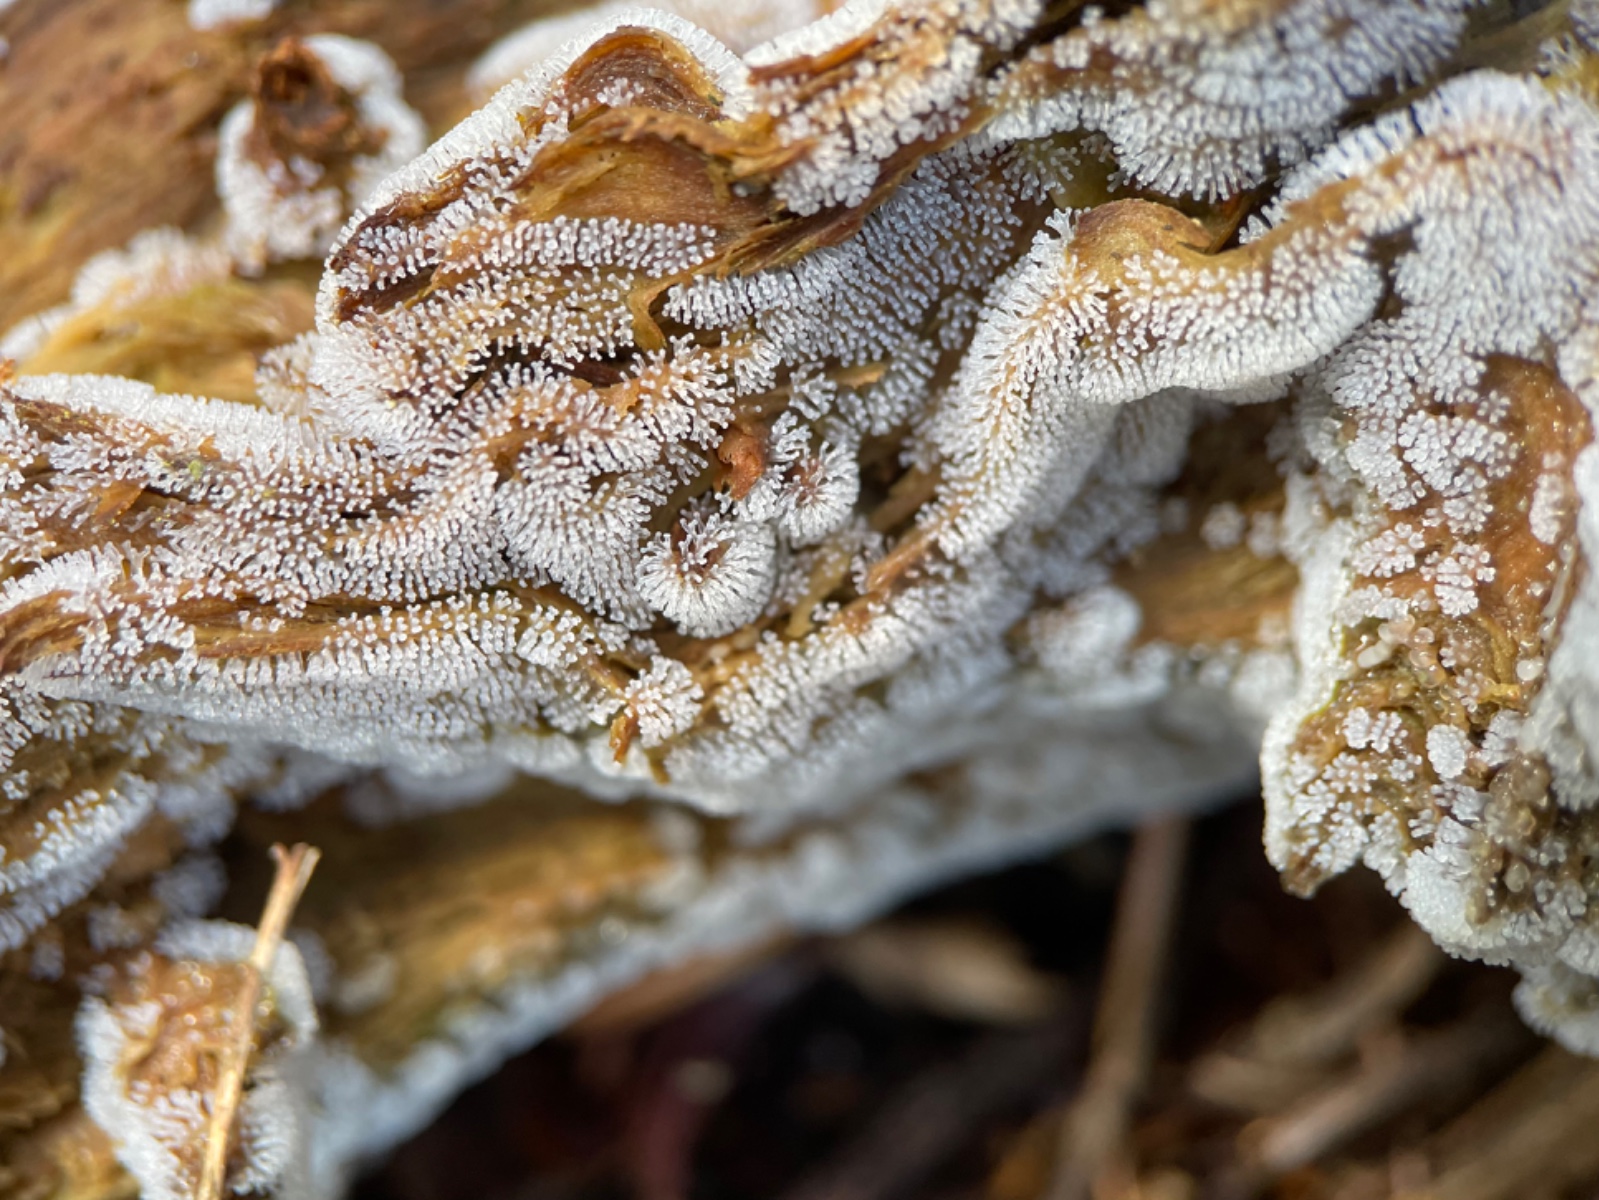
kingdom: Protozoa
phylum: Mycetozoa
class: Protosteliomycetes
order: Ceratiomyxales
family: Ceratiomyxaceae
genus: Ceratiomyxa
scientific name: Ceratiomyxa fruticulosa
